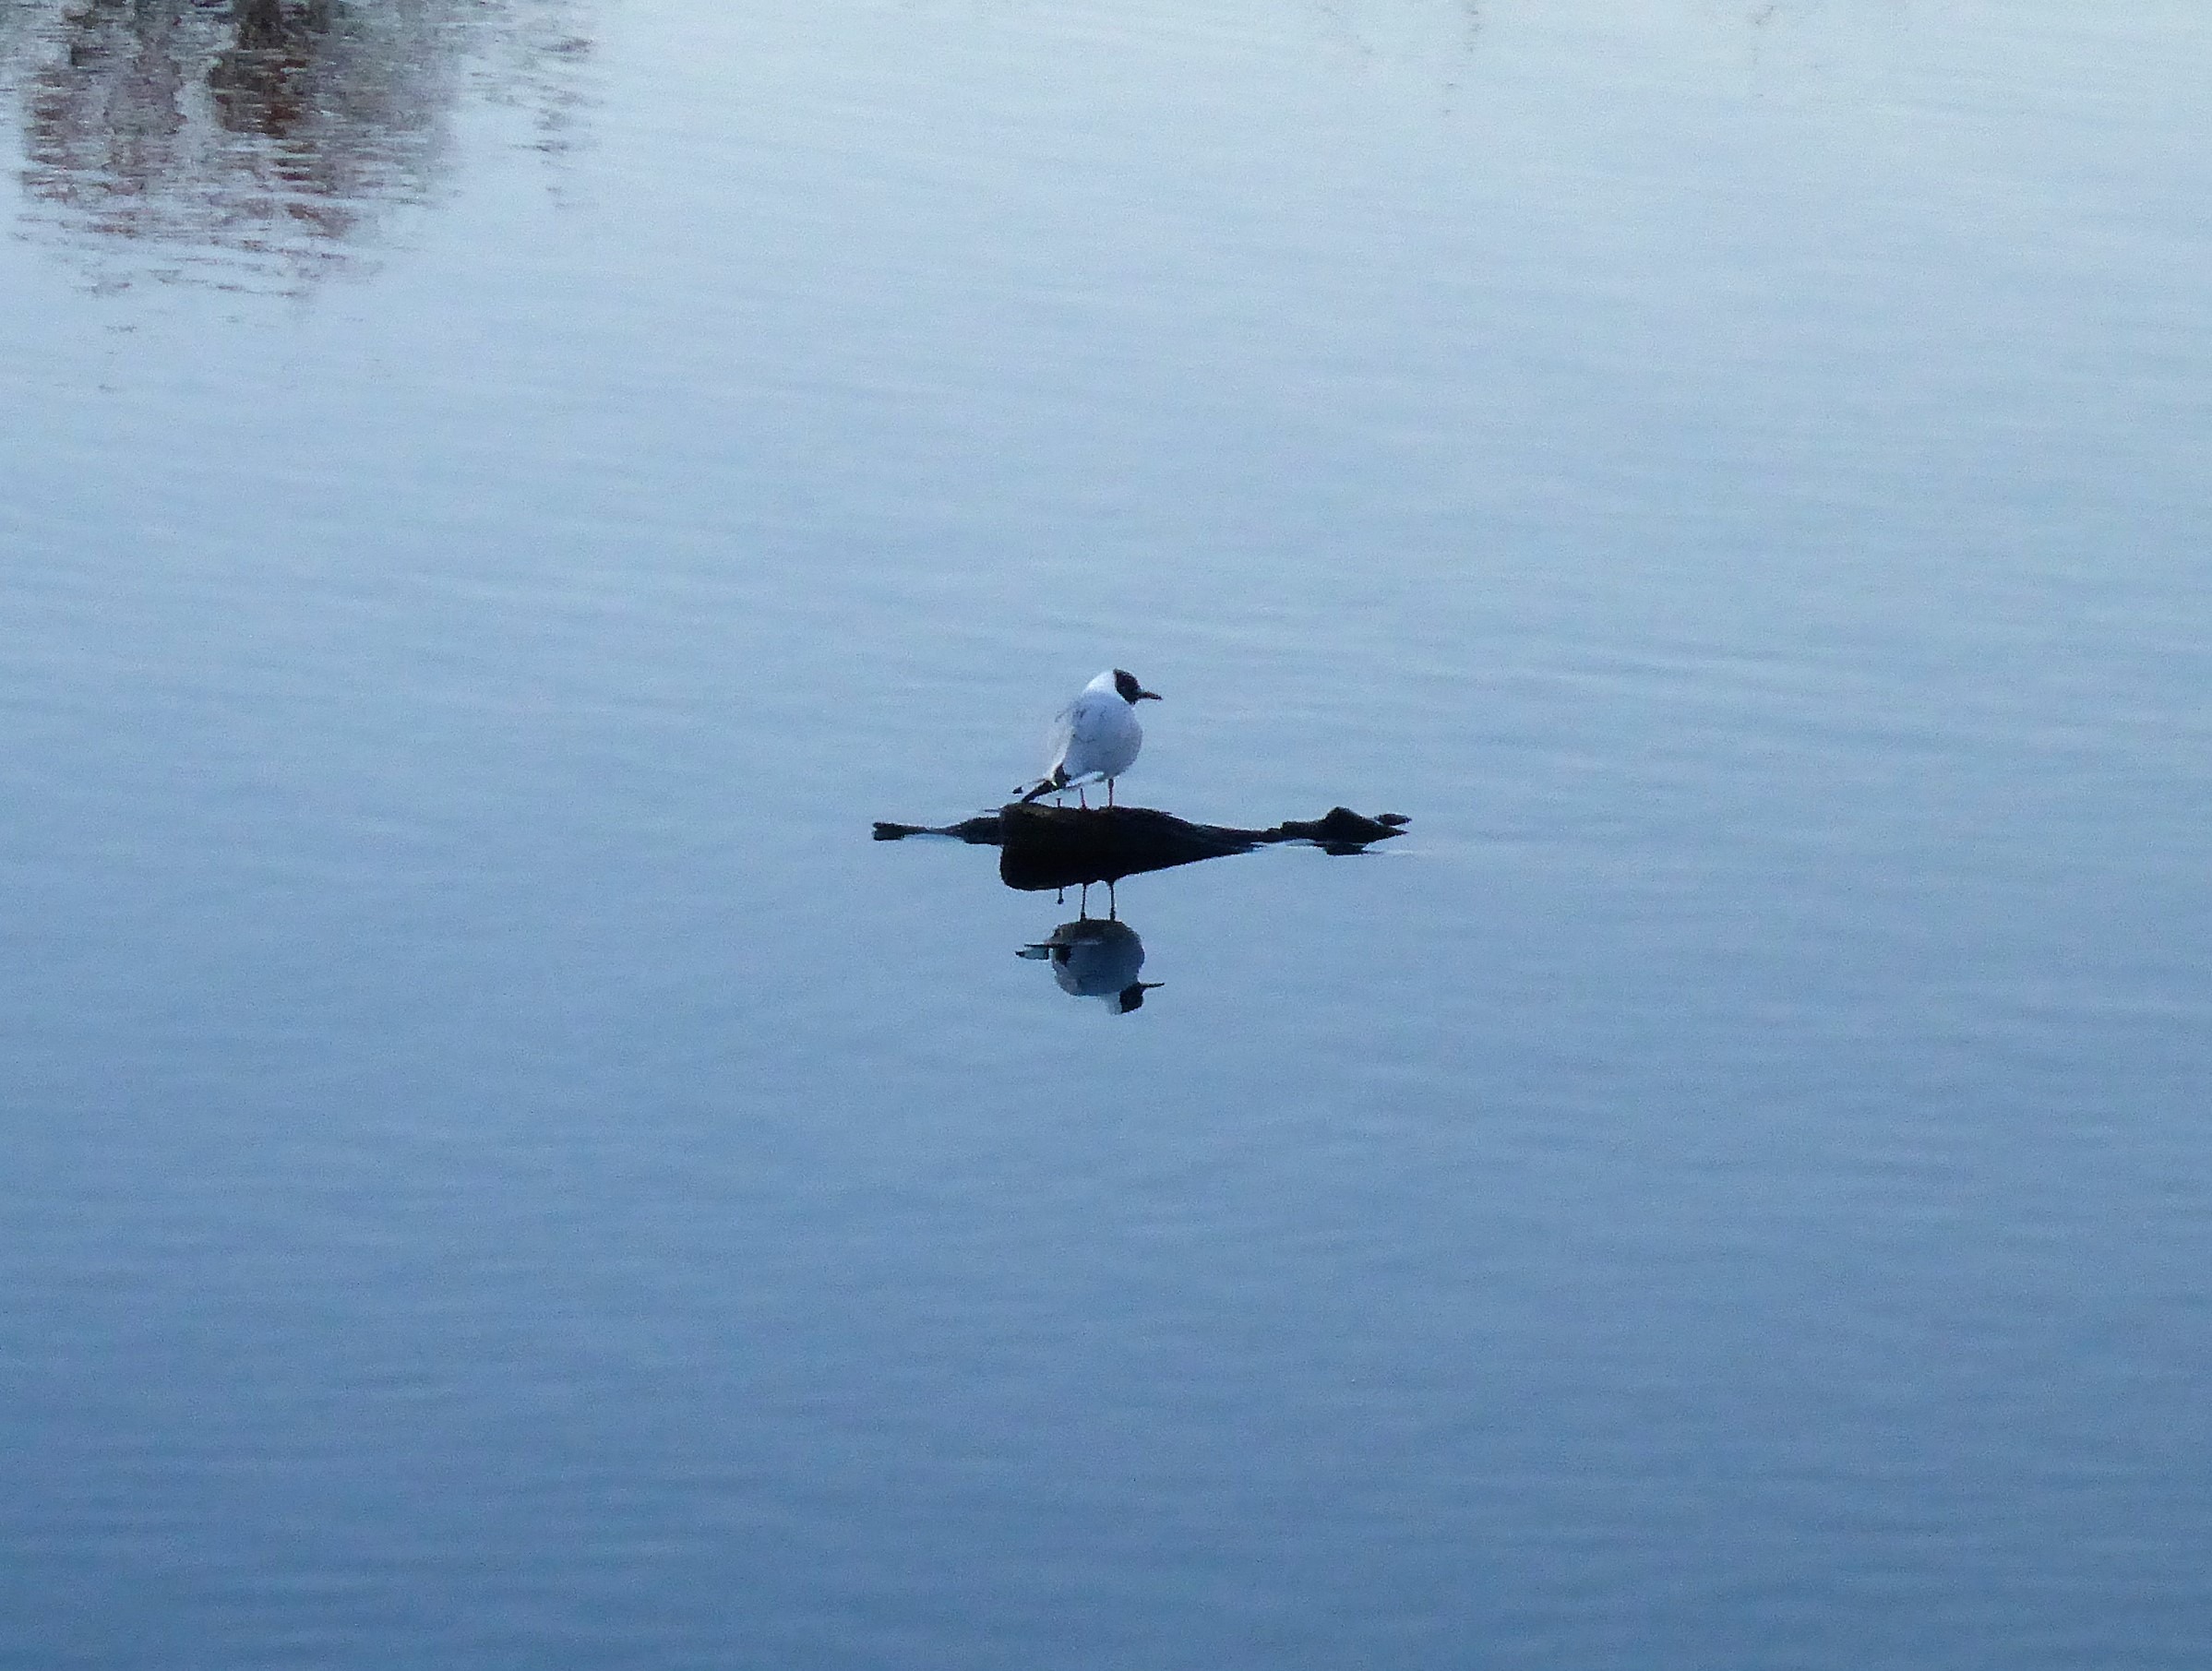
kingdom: Animalia
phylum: Chordata
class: Aves
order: Charadriiformes
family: Laridae
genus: Chroicocephalus
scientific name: Chroicocephalus ridibundus
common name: Hættemåge
